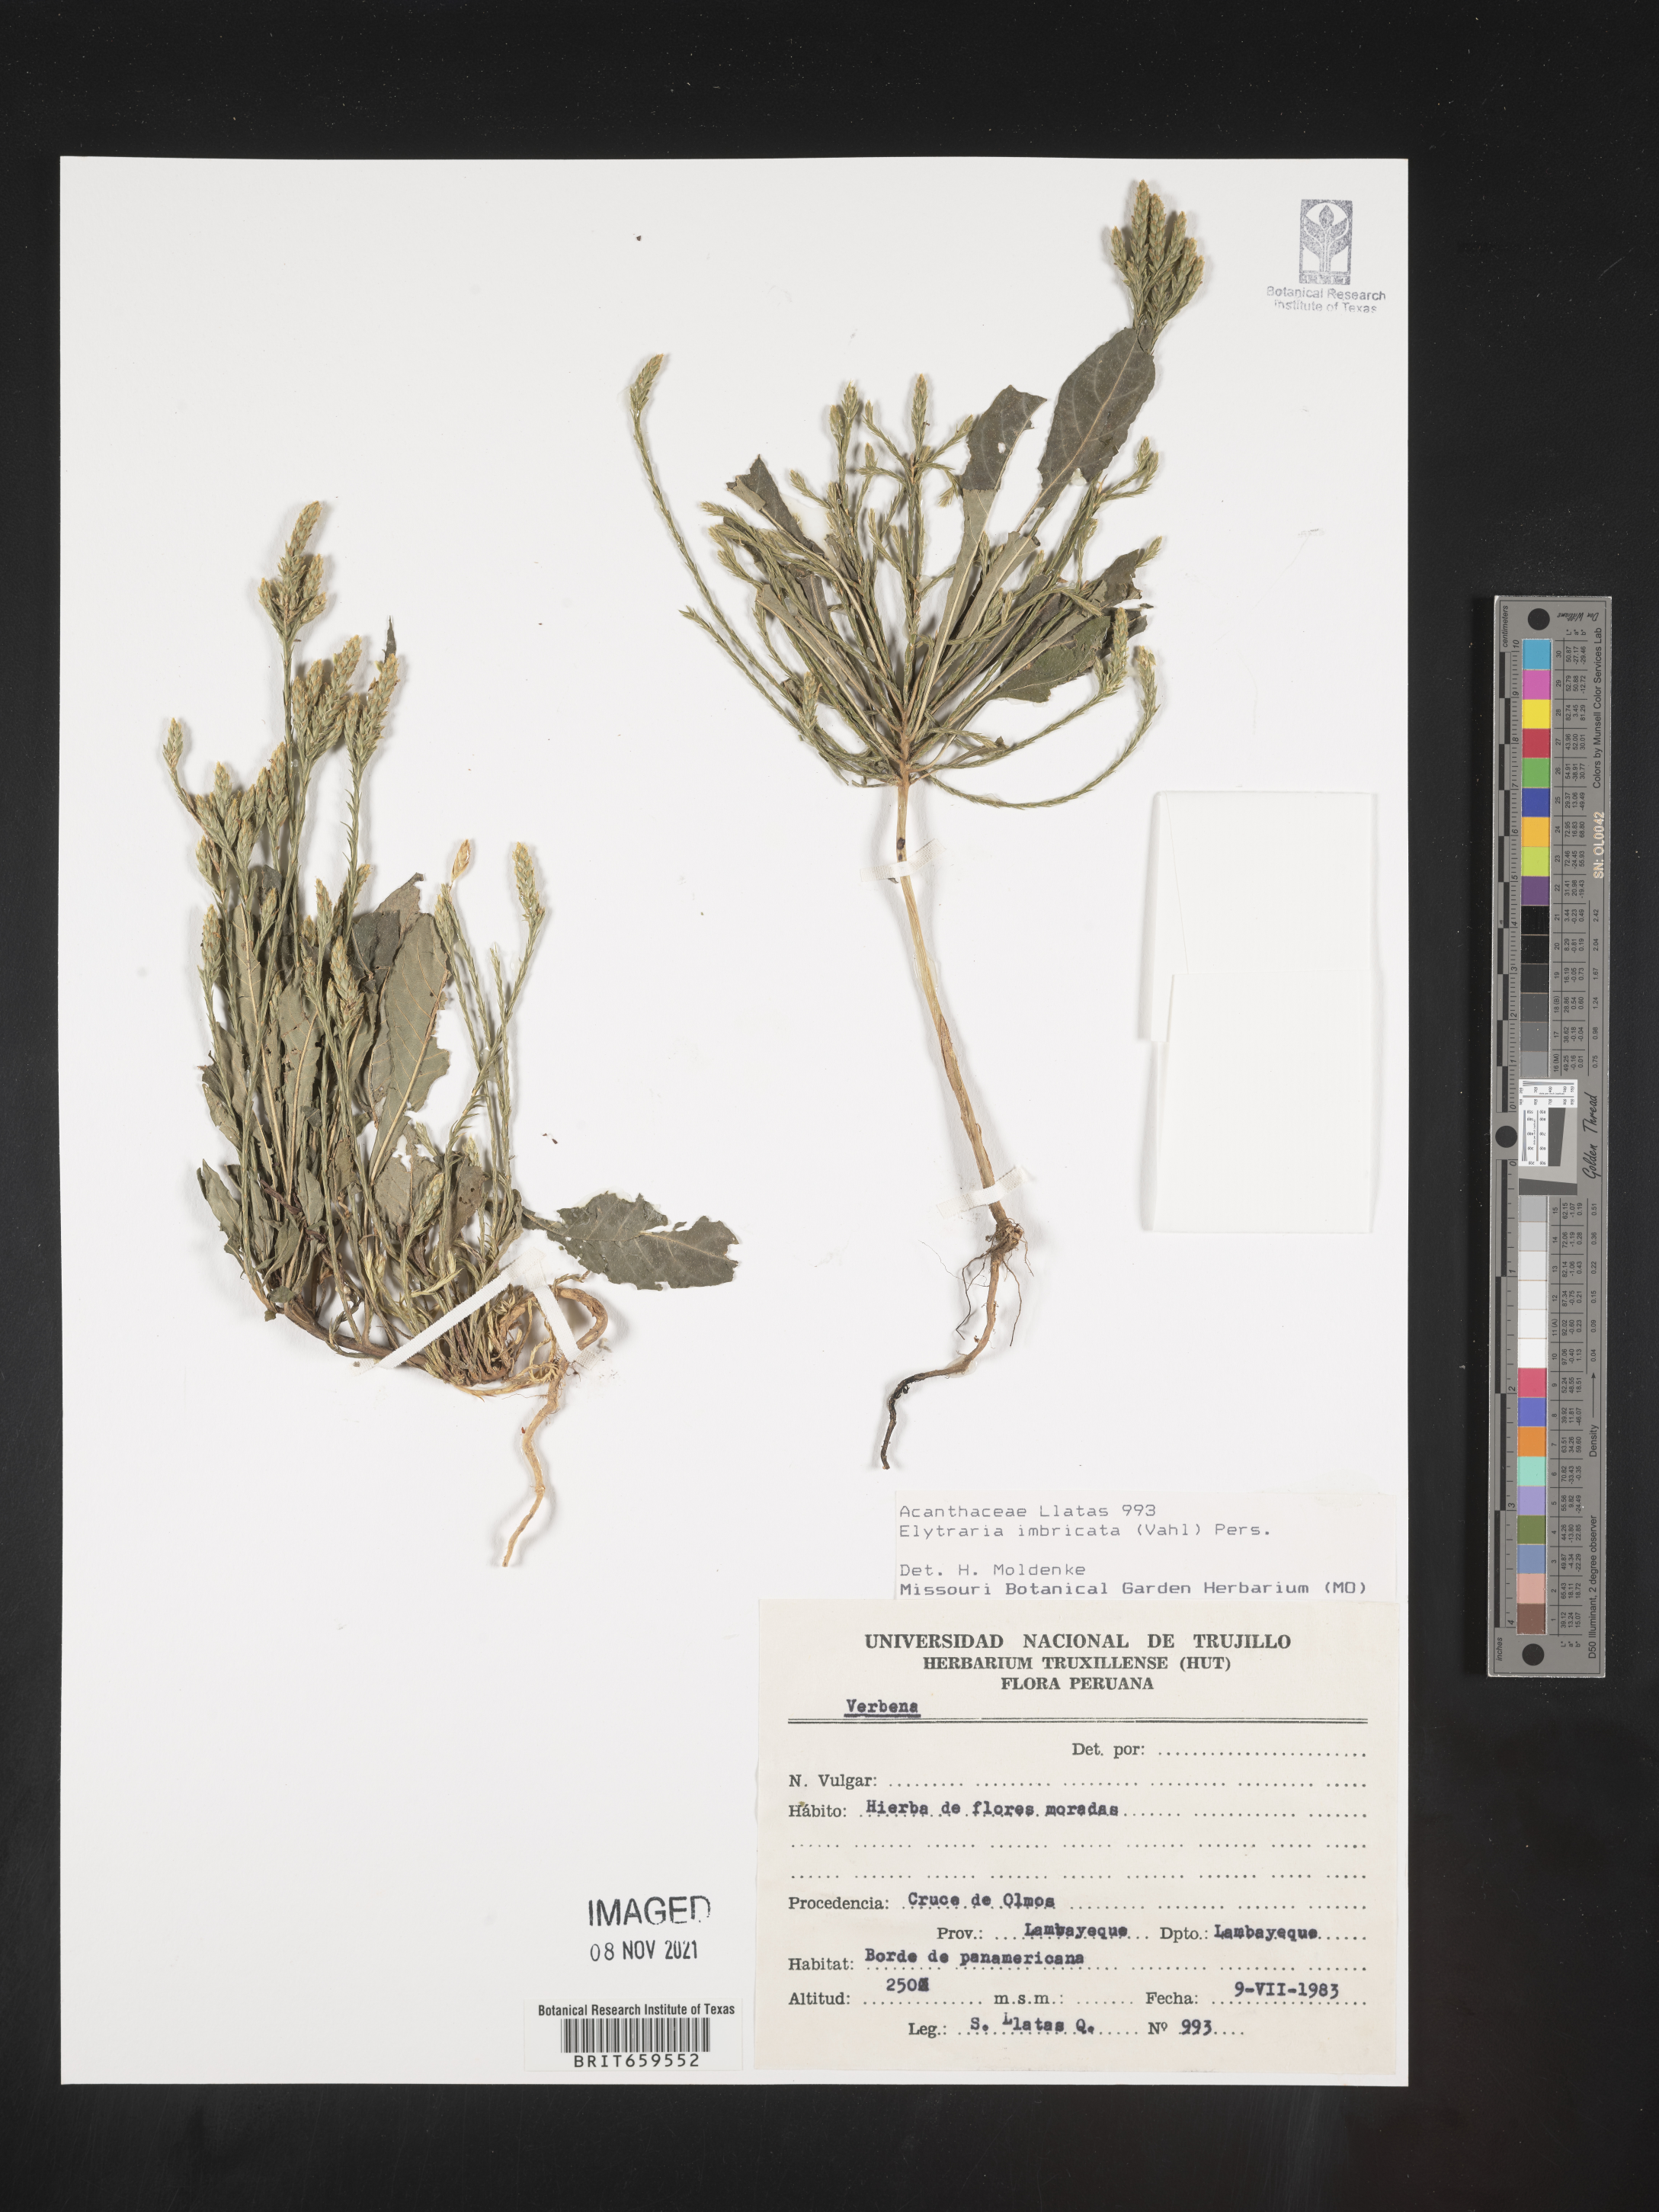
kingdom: Plantae
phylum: Tracheophyta
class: Magnoliopsida
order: Lamiales
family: Acanthaceae
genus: Elytraria
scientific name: Elytraria
